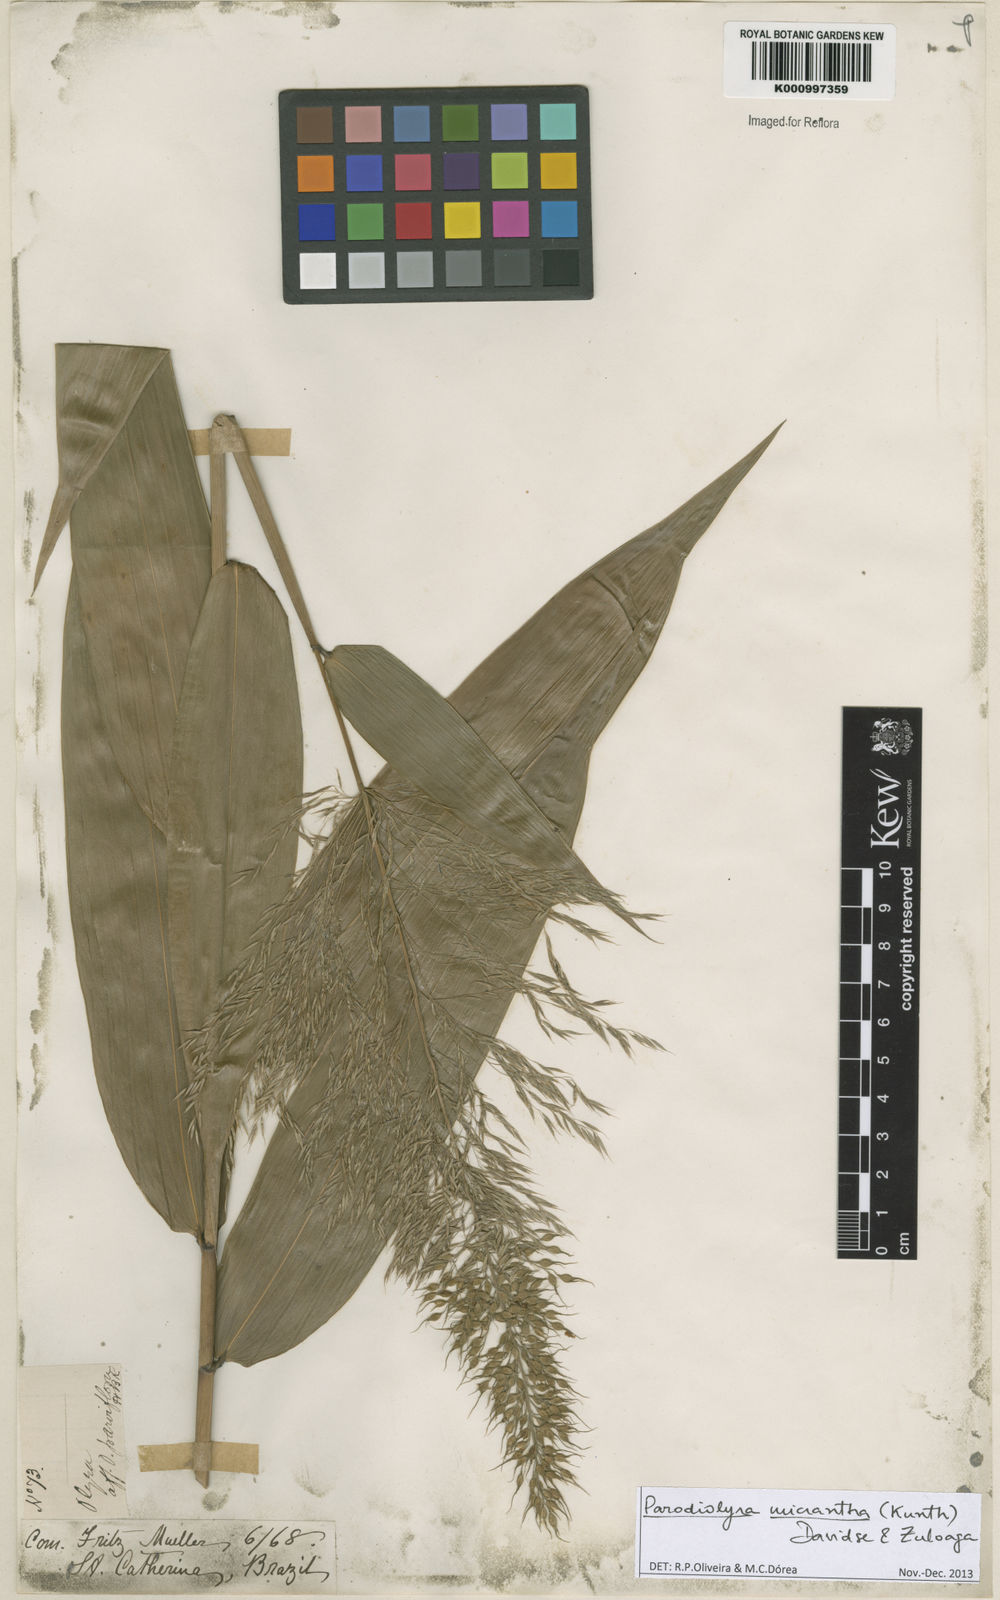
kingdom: Plantae
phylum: Tracheophyta
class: Liliopsida
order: Poales
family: Poaceae
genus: Taquara
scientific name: Taquara micrantha
